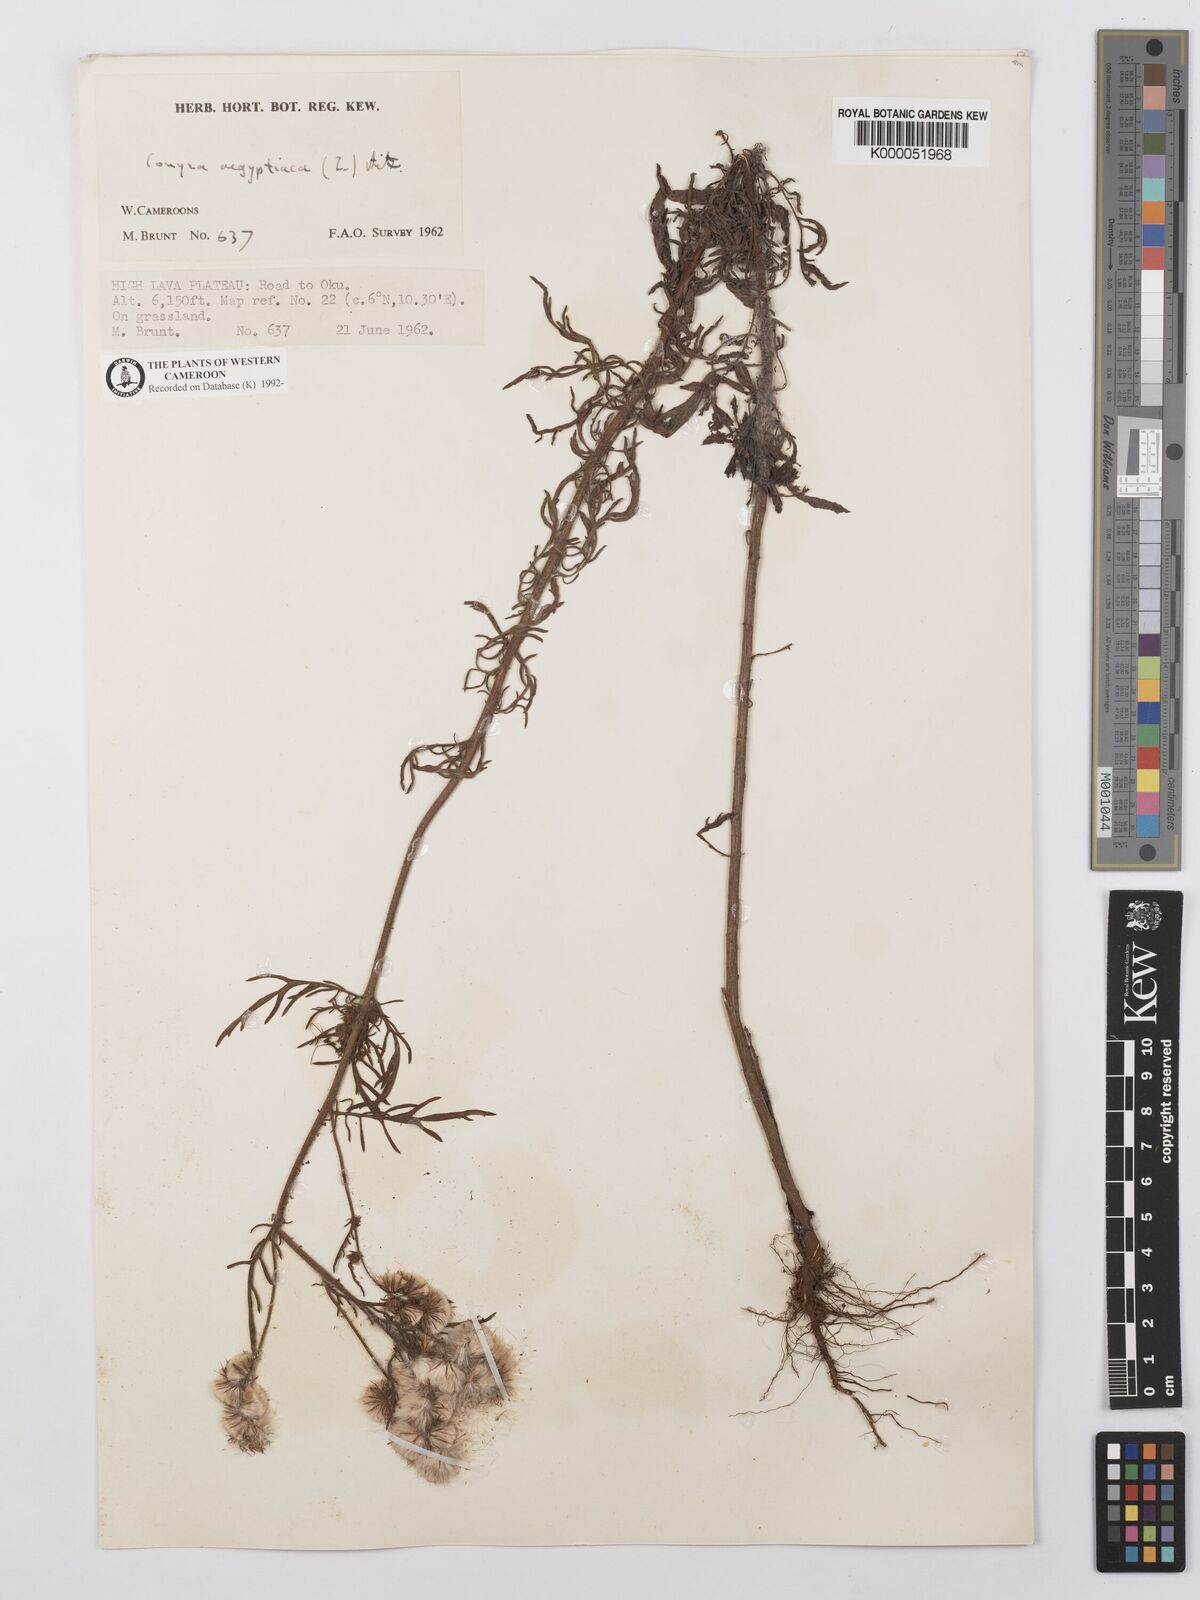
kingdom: Plantae
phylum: Tracheophyta
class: Magnoliopsida
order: Asterales
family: Asteraceae
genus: Nidorella
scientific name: Nidorella aegyptiaca
